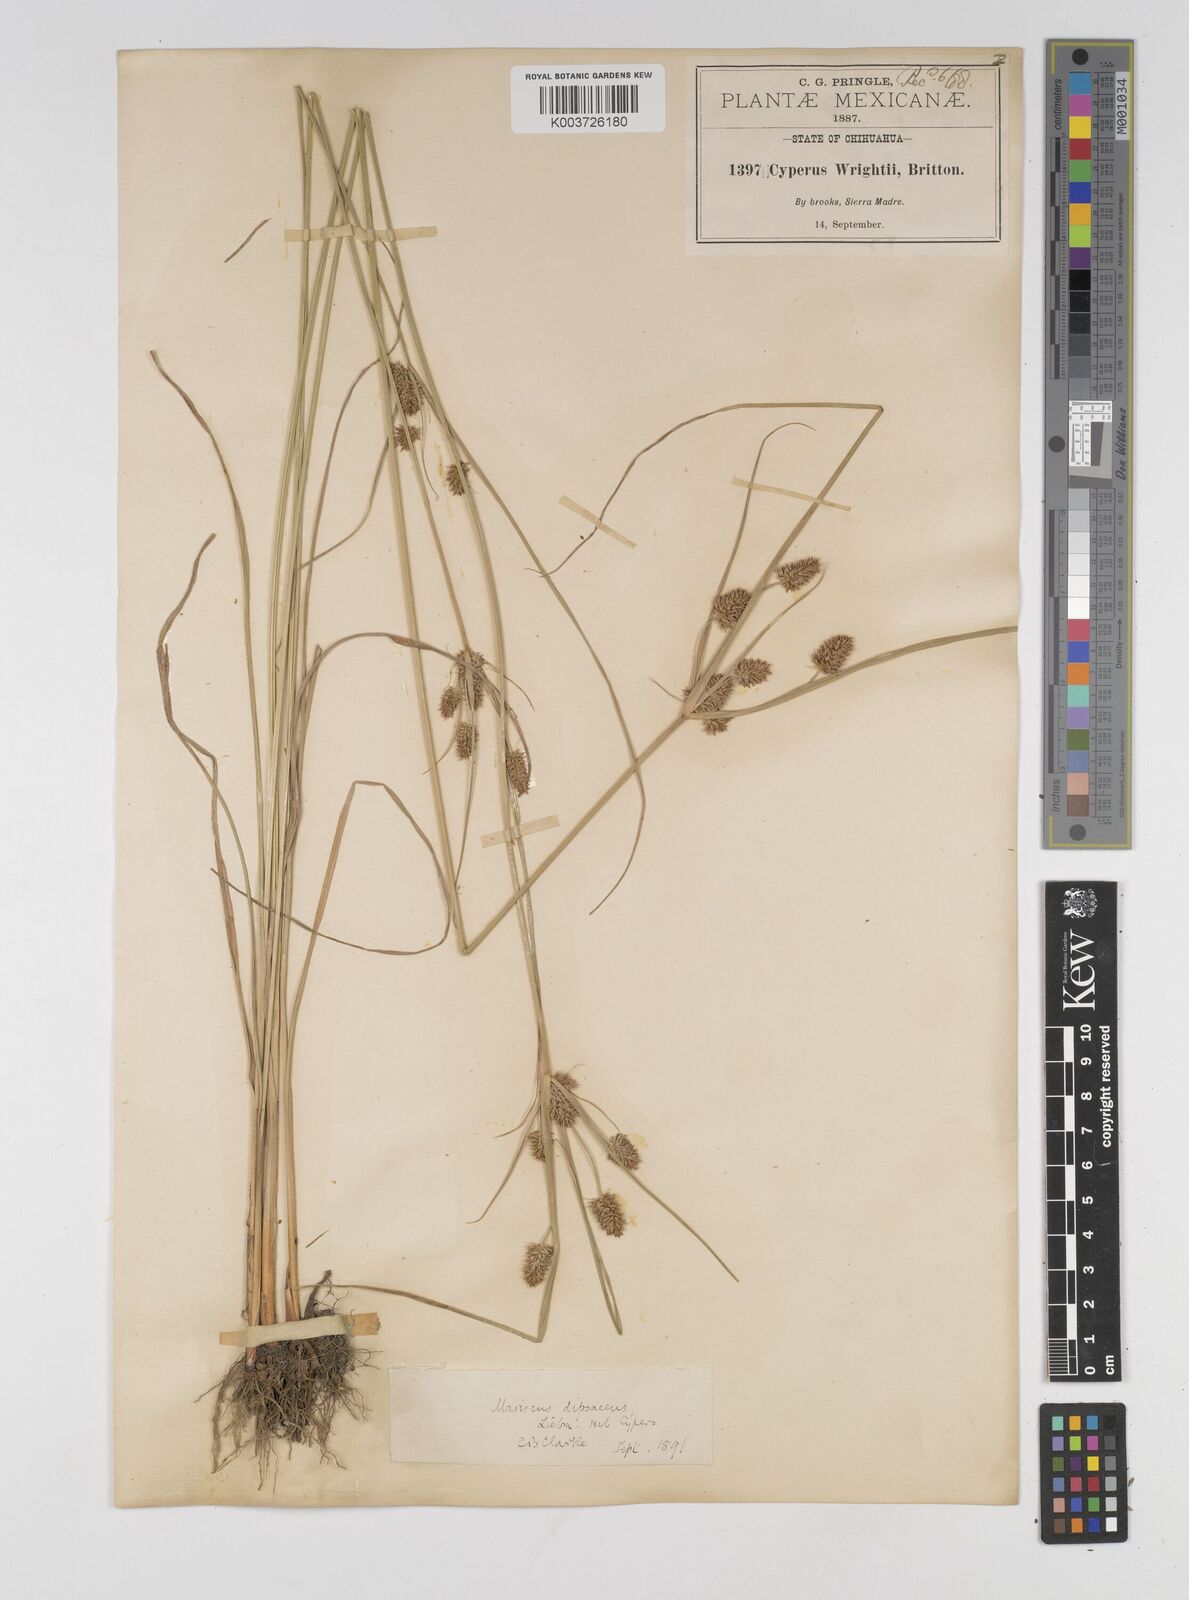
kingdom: Plantae
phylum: Tracheophyta
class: Liliopsida
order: Poales
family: Cyperaceae
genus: Cyperus
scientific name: Cyperus dipsaceus
